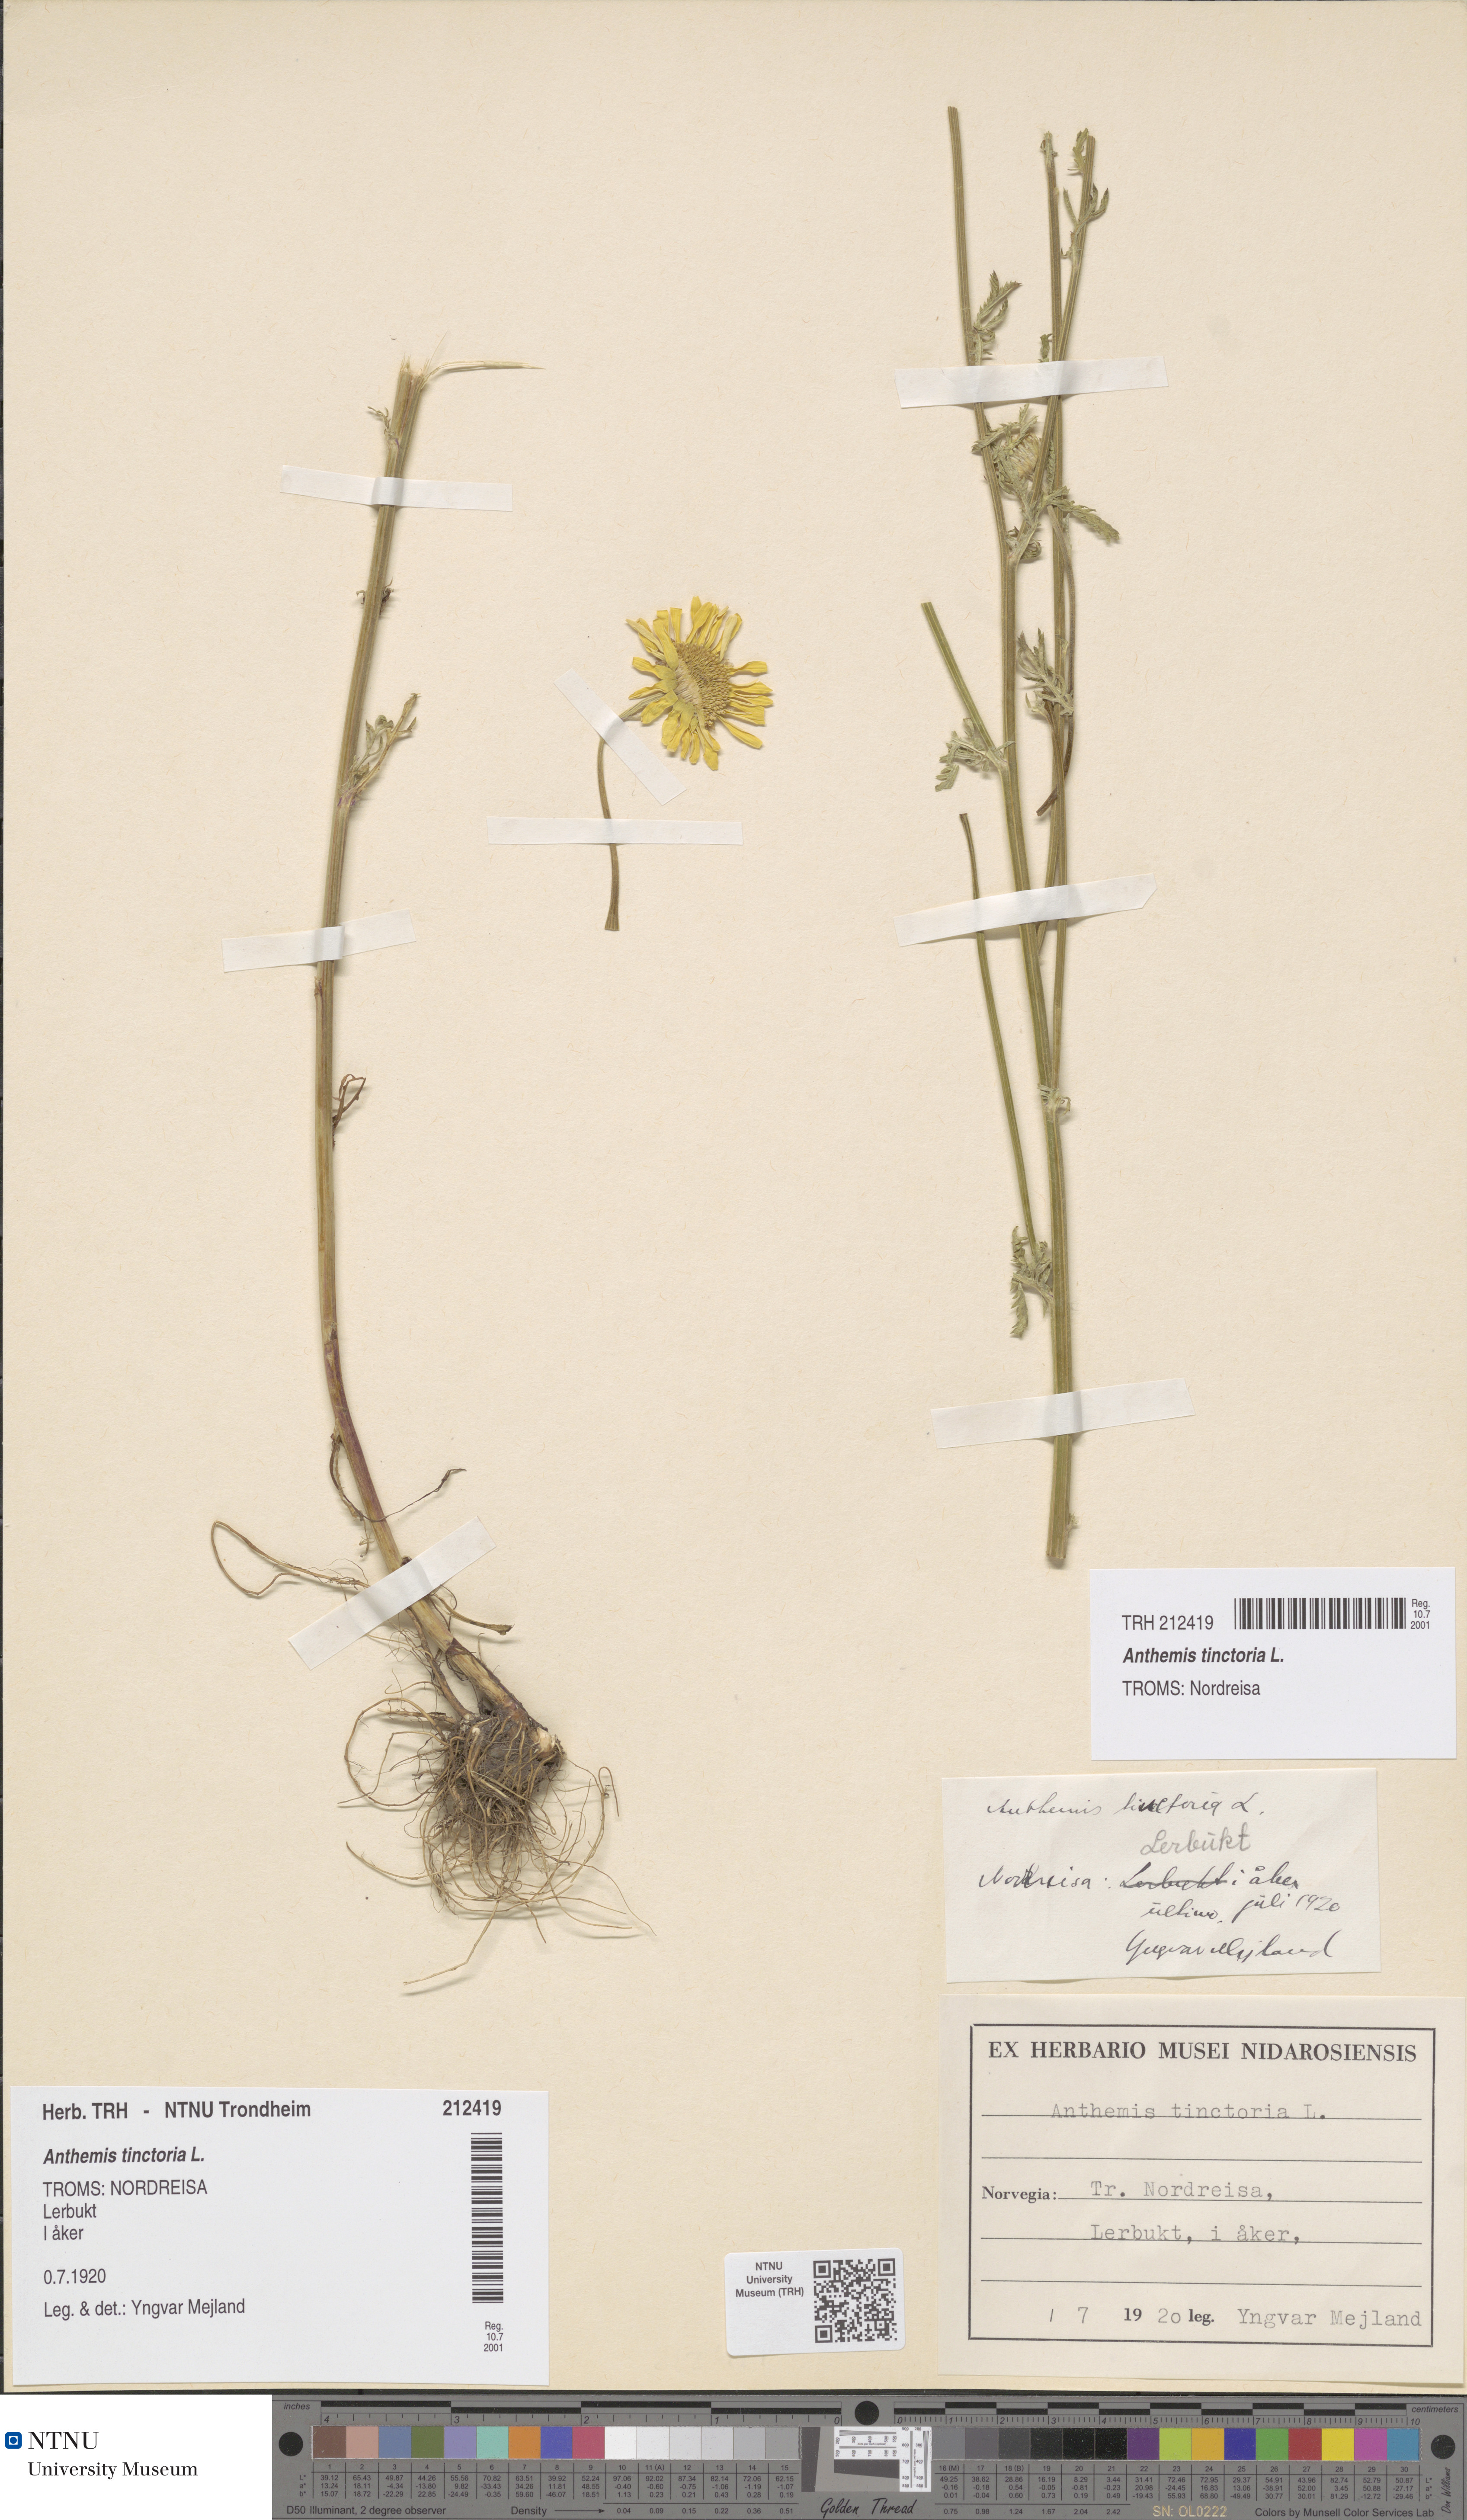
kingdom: Plantae
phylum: Tracheophyta
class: Magnoliopsida
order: Asterales
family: Asteraceae
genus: Cota
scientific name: Cota tinctoria
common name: Golden chamomile
